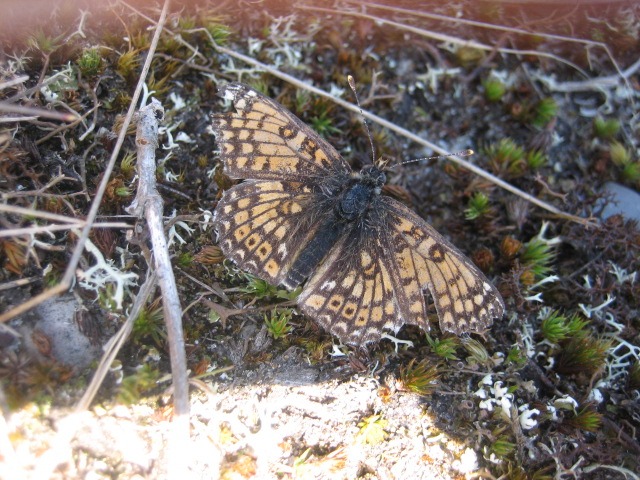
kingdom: Animalia
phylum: Arthropoda
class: Insecta
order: Lepidoptera
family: Nymphalidae
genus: Melitaea
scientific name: Melitaea cinxia
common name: Okkergul pletvinge
